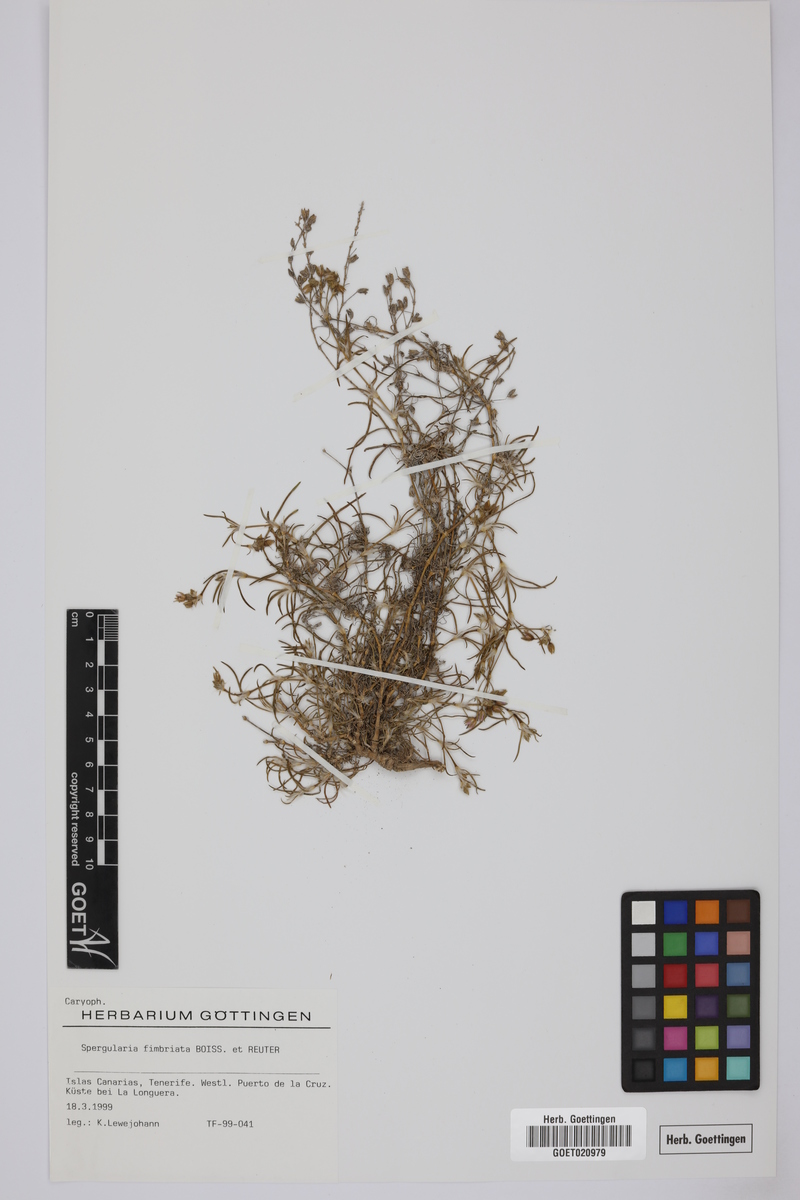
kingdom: Plantae
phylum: Tracheophyta
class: Magnoliopsida
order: Caryophyllales
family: Caryophyllaceae
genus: Spergularia
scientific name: Spergularia fimbriata
